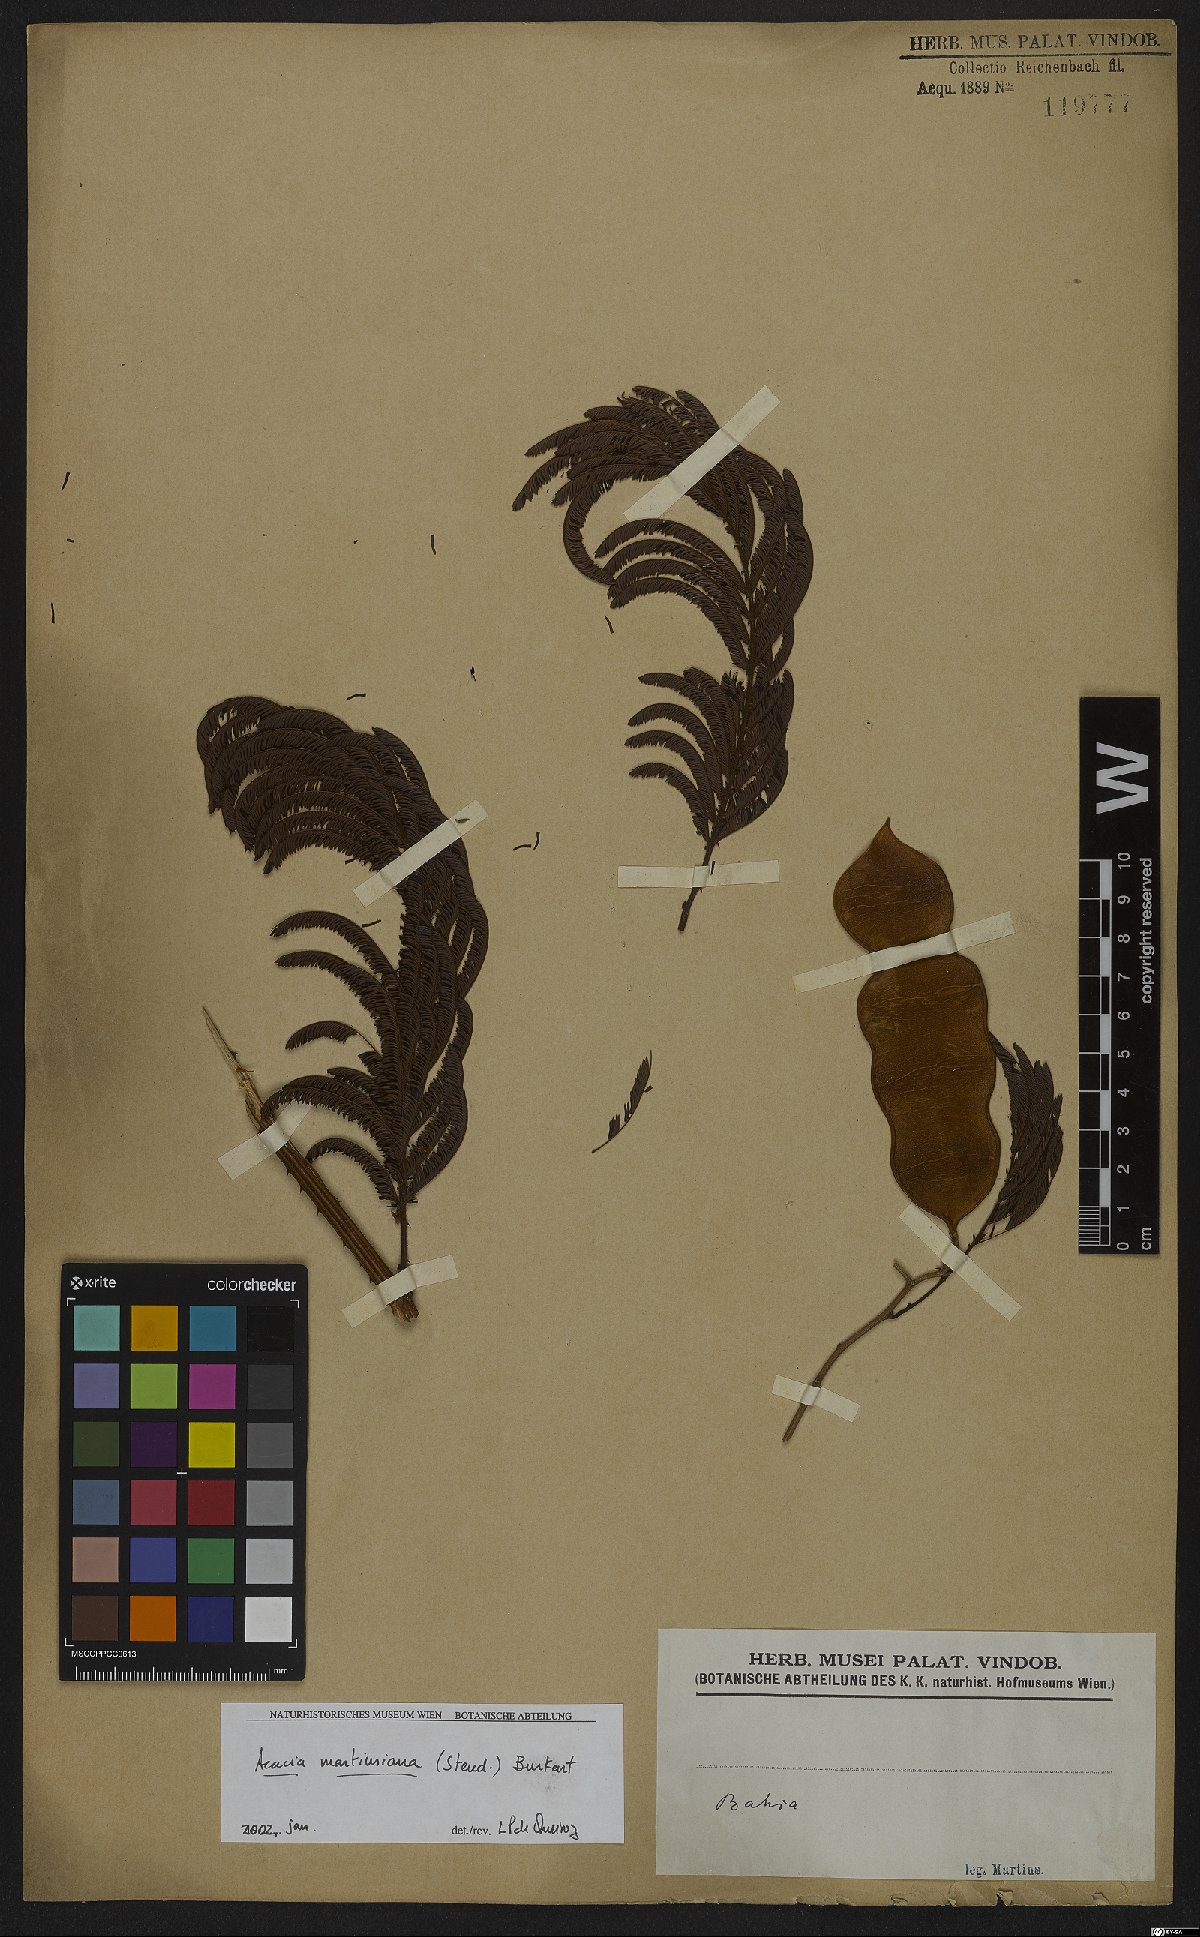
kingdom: Plantae
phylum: Tracheophyta
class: Magnoliopsida
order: Fabales
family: Fabaceae
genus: Senegalia
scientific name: Senegalia martiusiana
